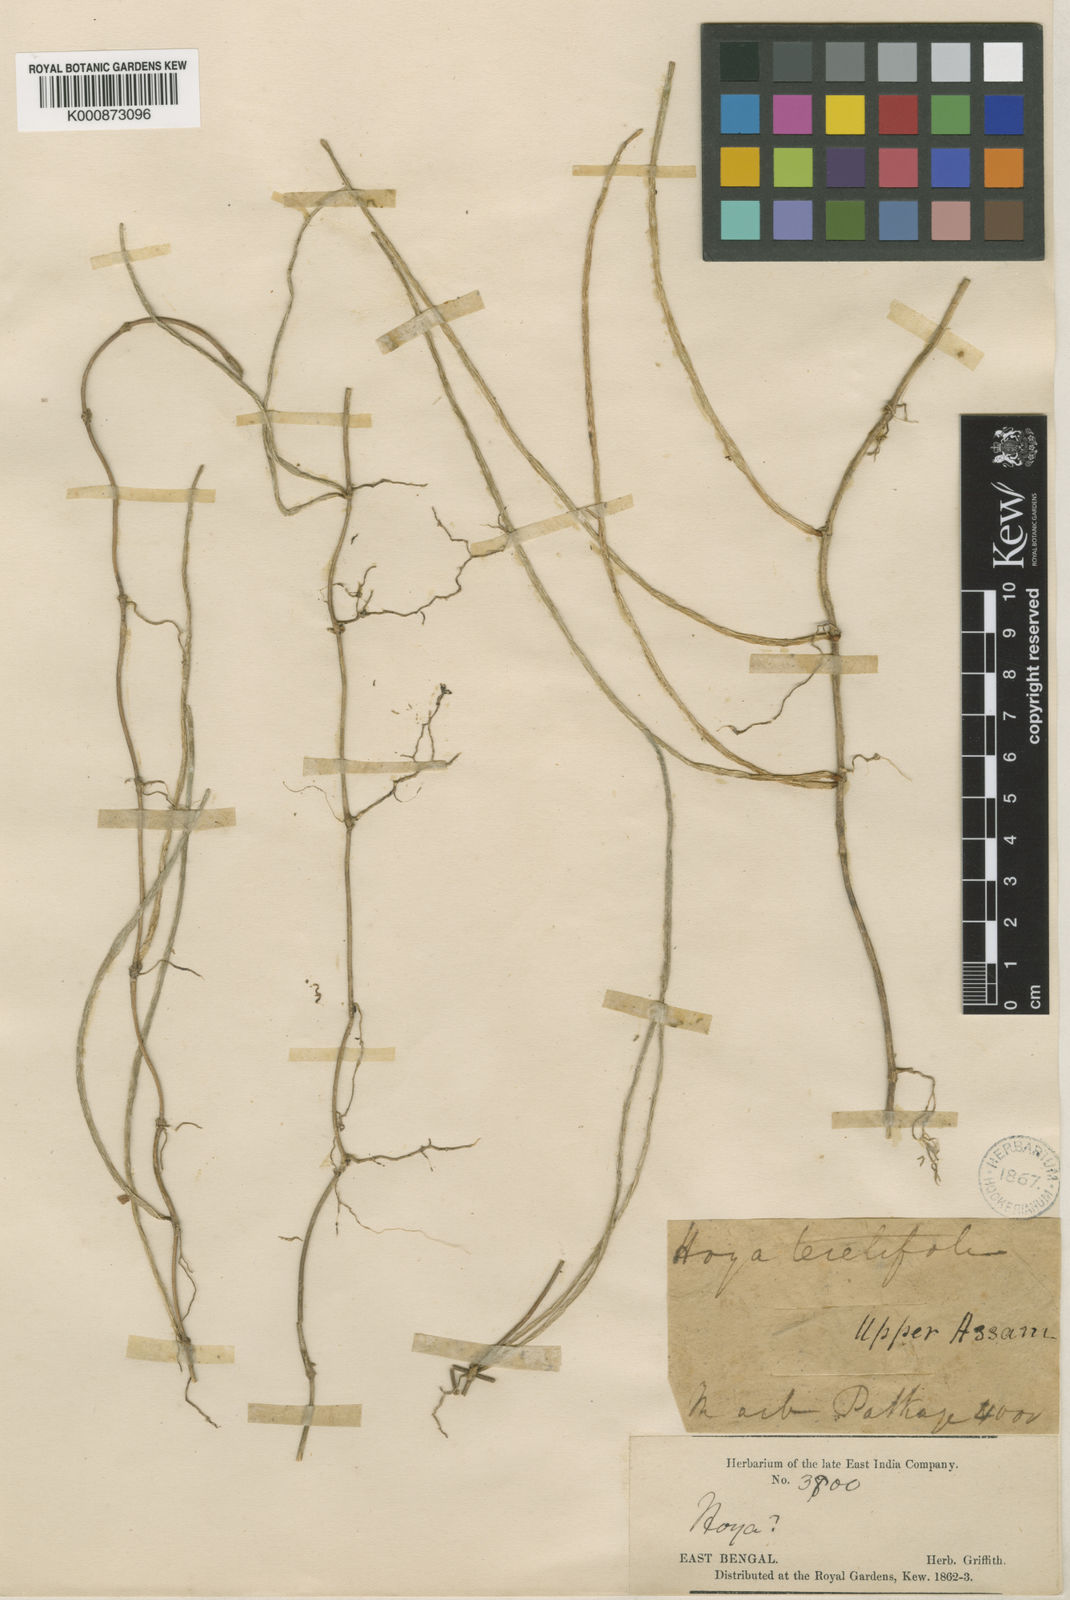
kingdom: Plantae
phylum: Tracheophyta
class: Magnoliopsida
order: Gentianales
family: Apocynaceae
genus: Hoya
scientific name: Hoya teretifolia
